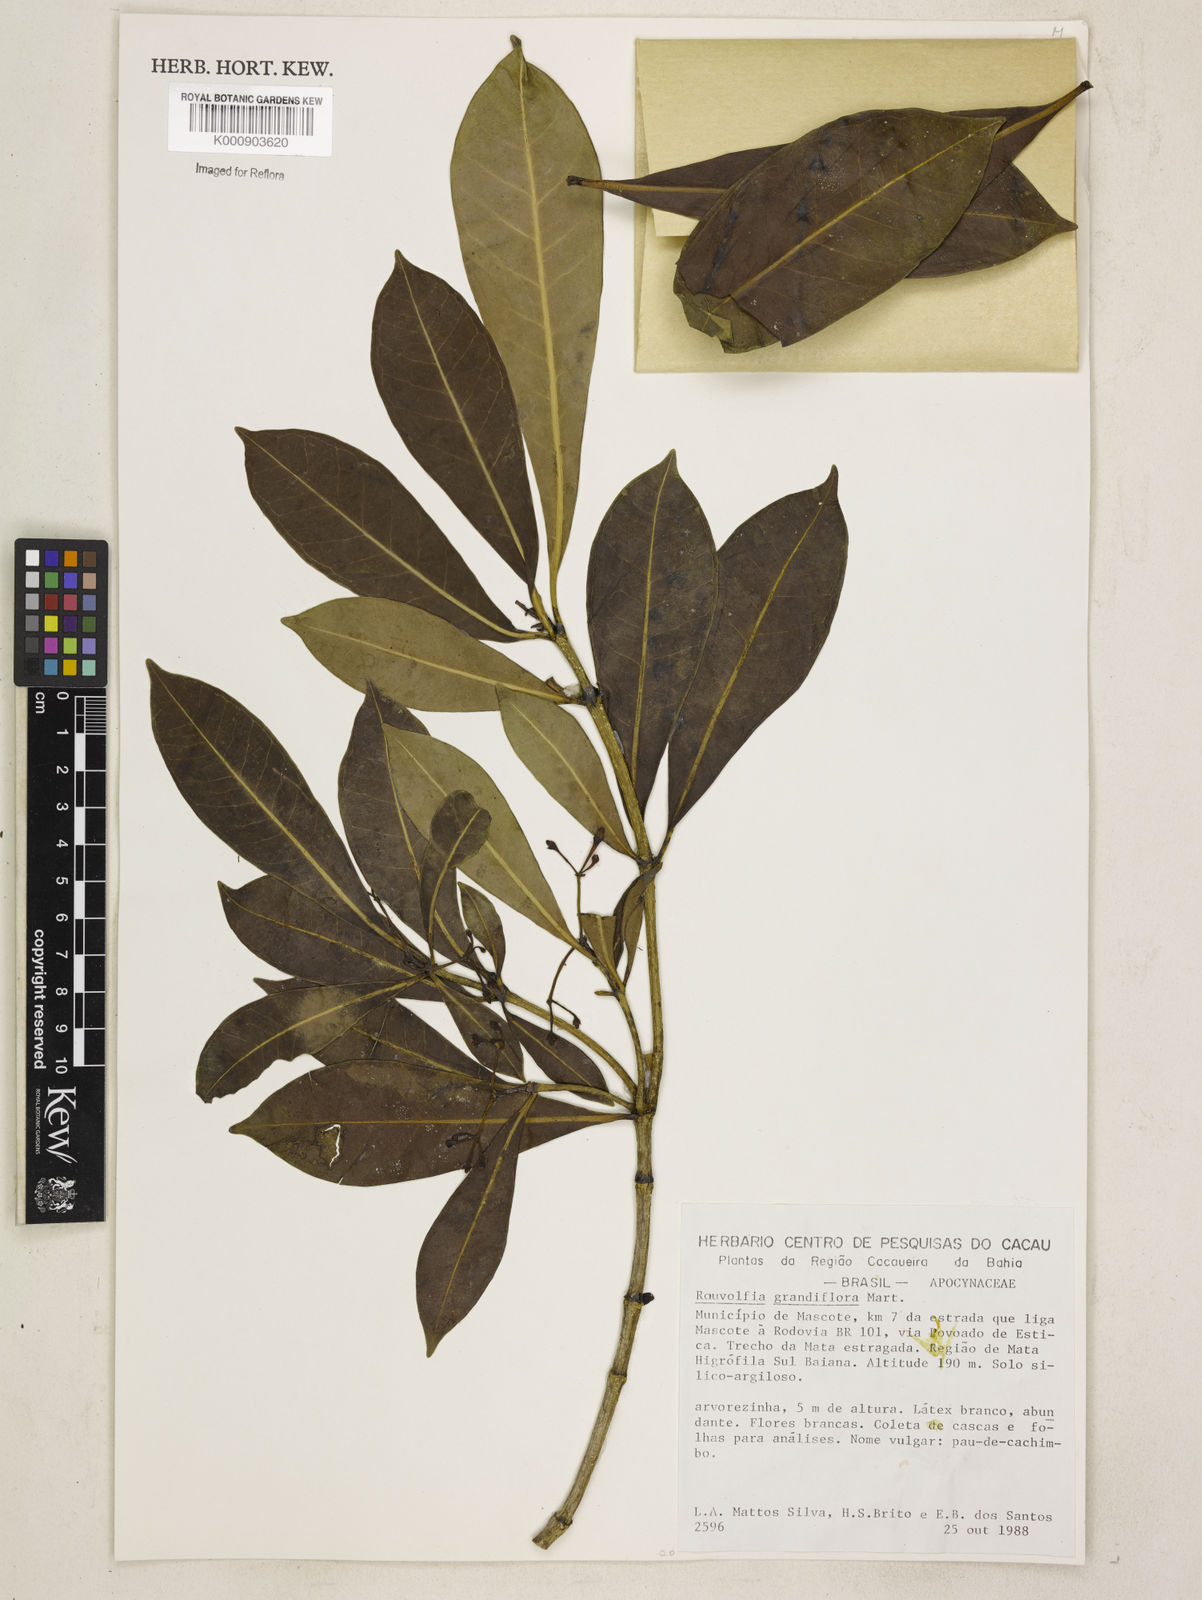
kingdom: Plantae
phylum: Tracheophyta
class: Magnoliopsida
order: Gentianales
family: Apocynaceae
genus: Rauvolfia
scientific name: Rauvolfia
